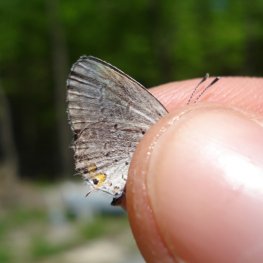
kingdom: Animalia
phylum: Arthropoda
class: Insecta
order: Lepidoptera
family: Lycaenidae
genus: Elkalyce
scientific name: Elkalyce comyntas
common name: Eastern Tailed-Blue
